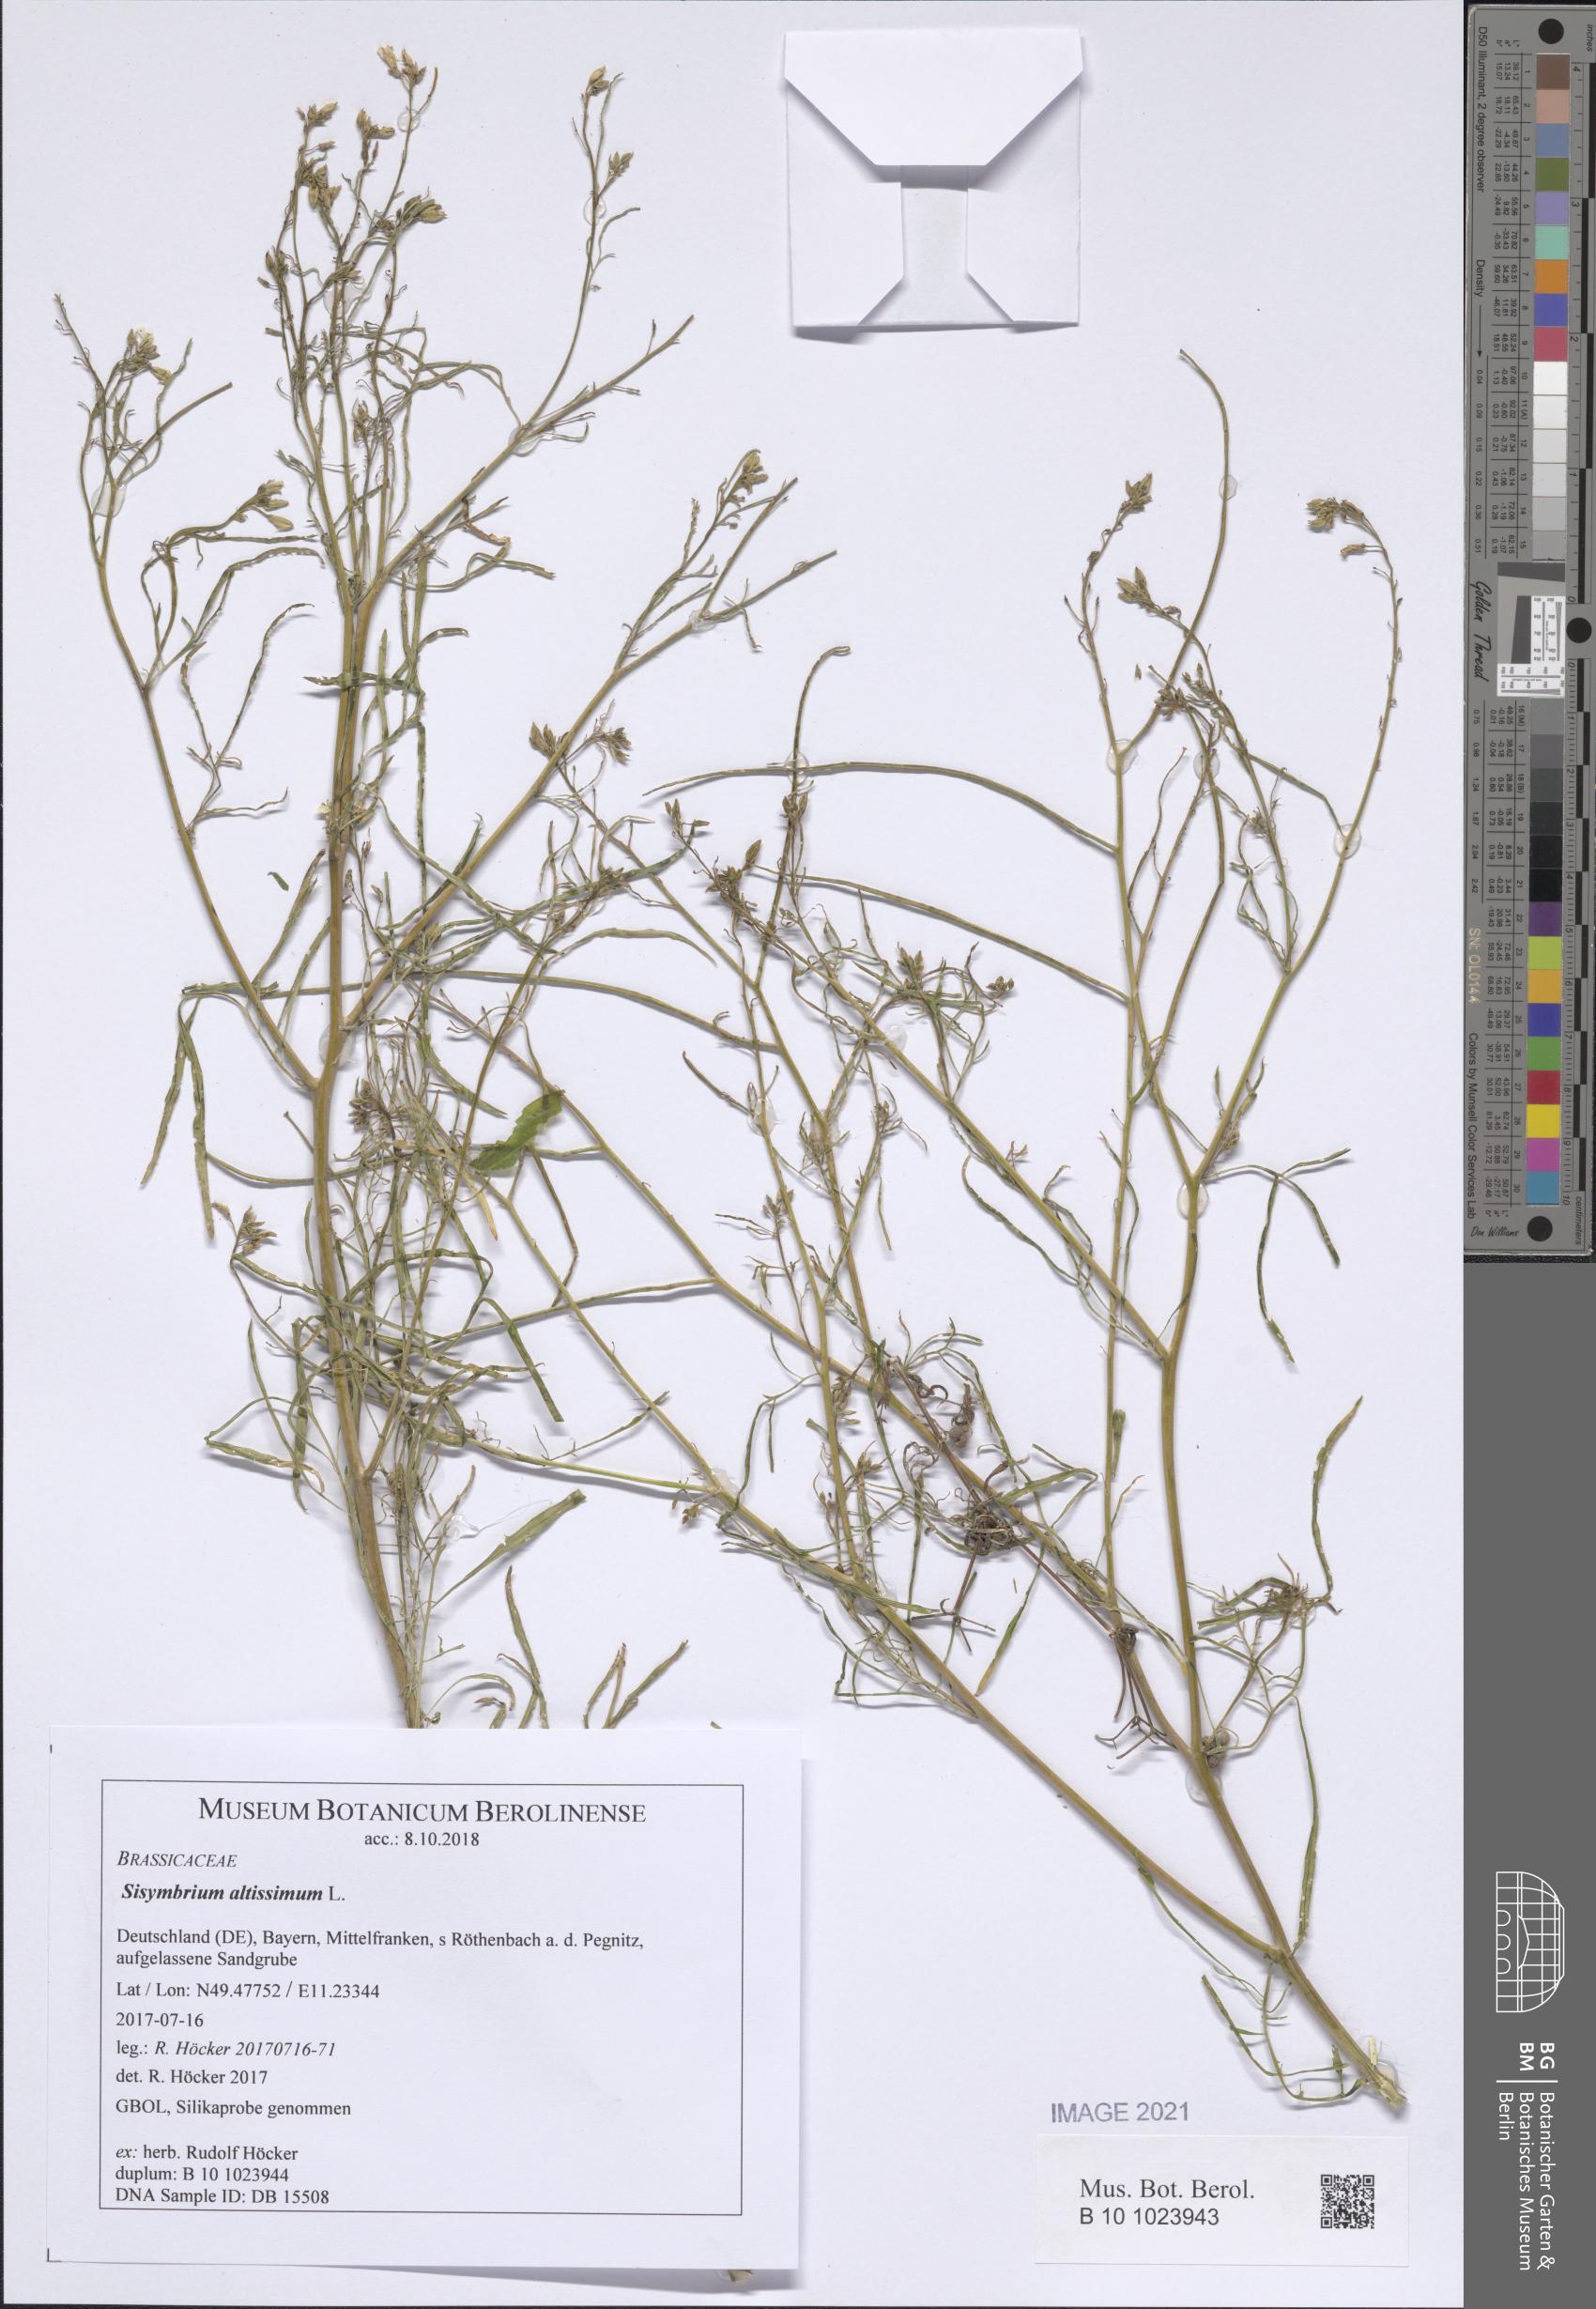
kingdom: Plantae
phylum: Tracheophyta
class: Magnoliopsida
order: Brassicales
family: Brassicaceae
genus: Sisymbrium
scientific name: Sisymbrium altissimum
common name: Tall rocket
